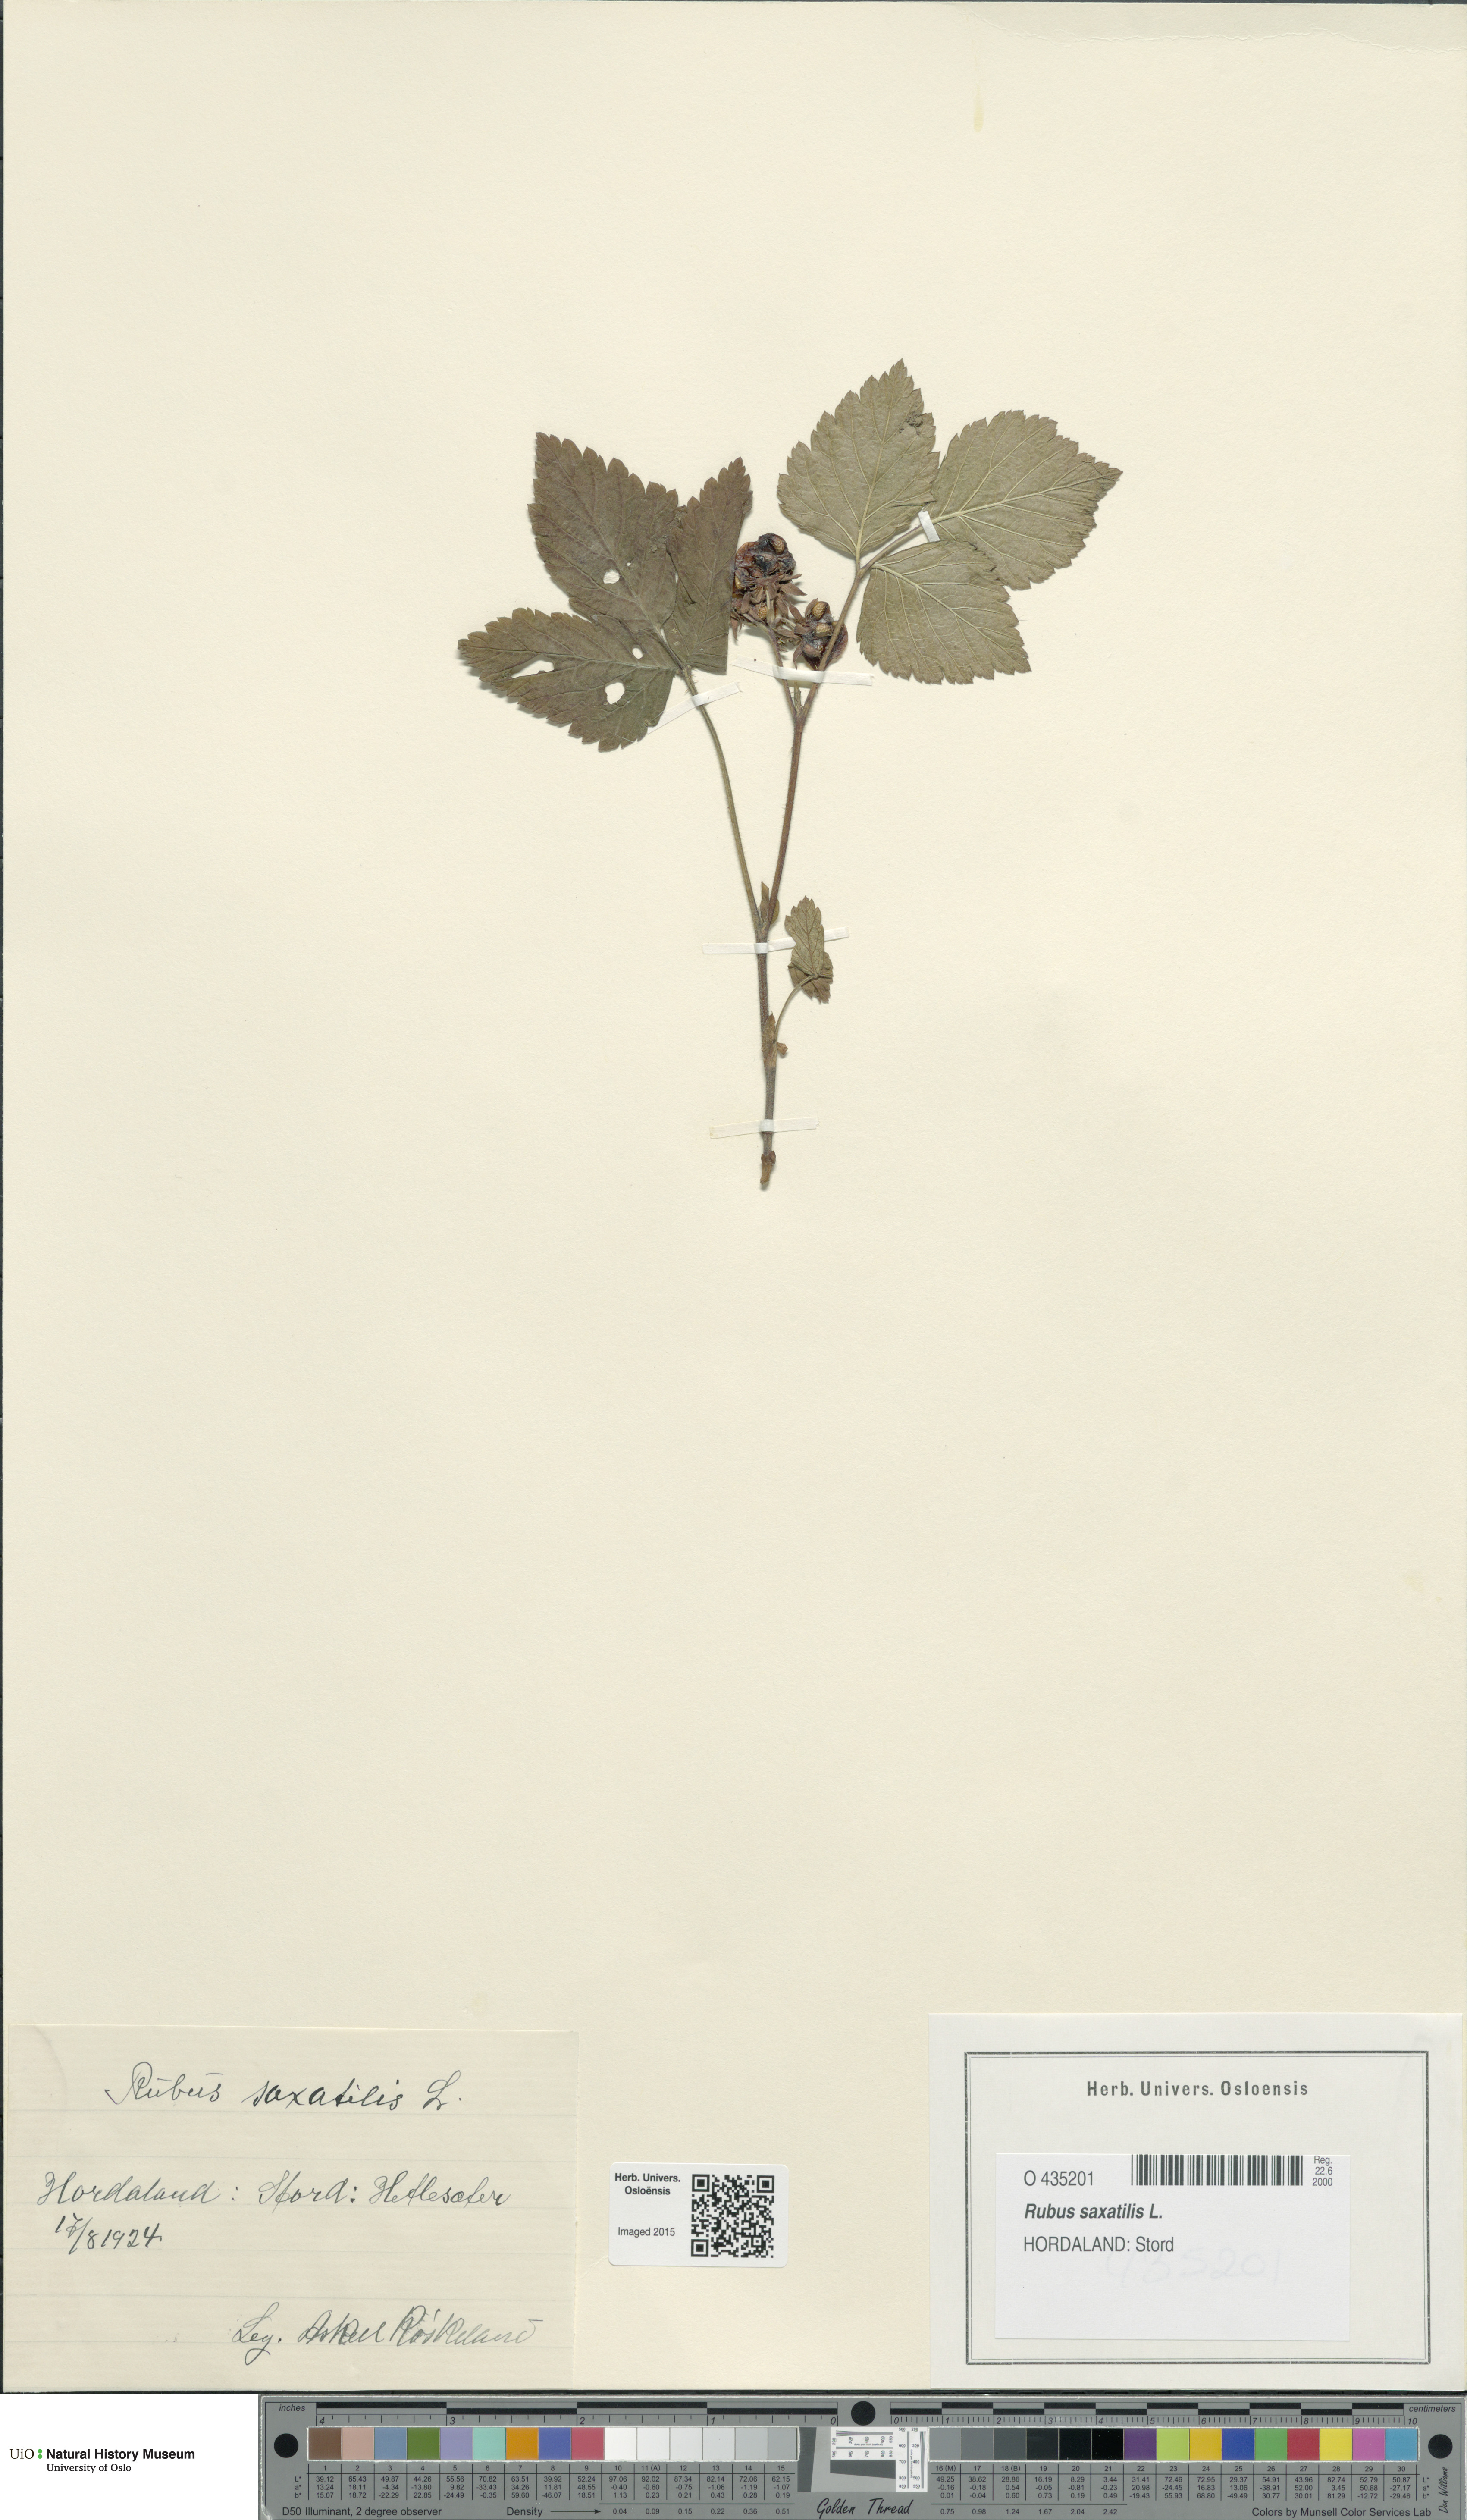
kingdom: Plantae
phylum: Tracheophyta
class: Magnoliopsida
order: Rosales
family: Rosaceae
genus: Rubus
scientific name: Rubus saxatilis
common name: Stone bramble
